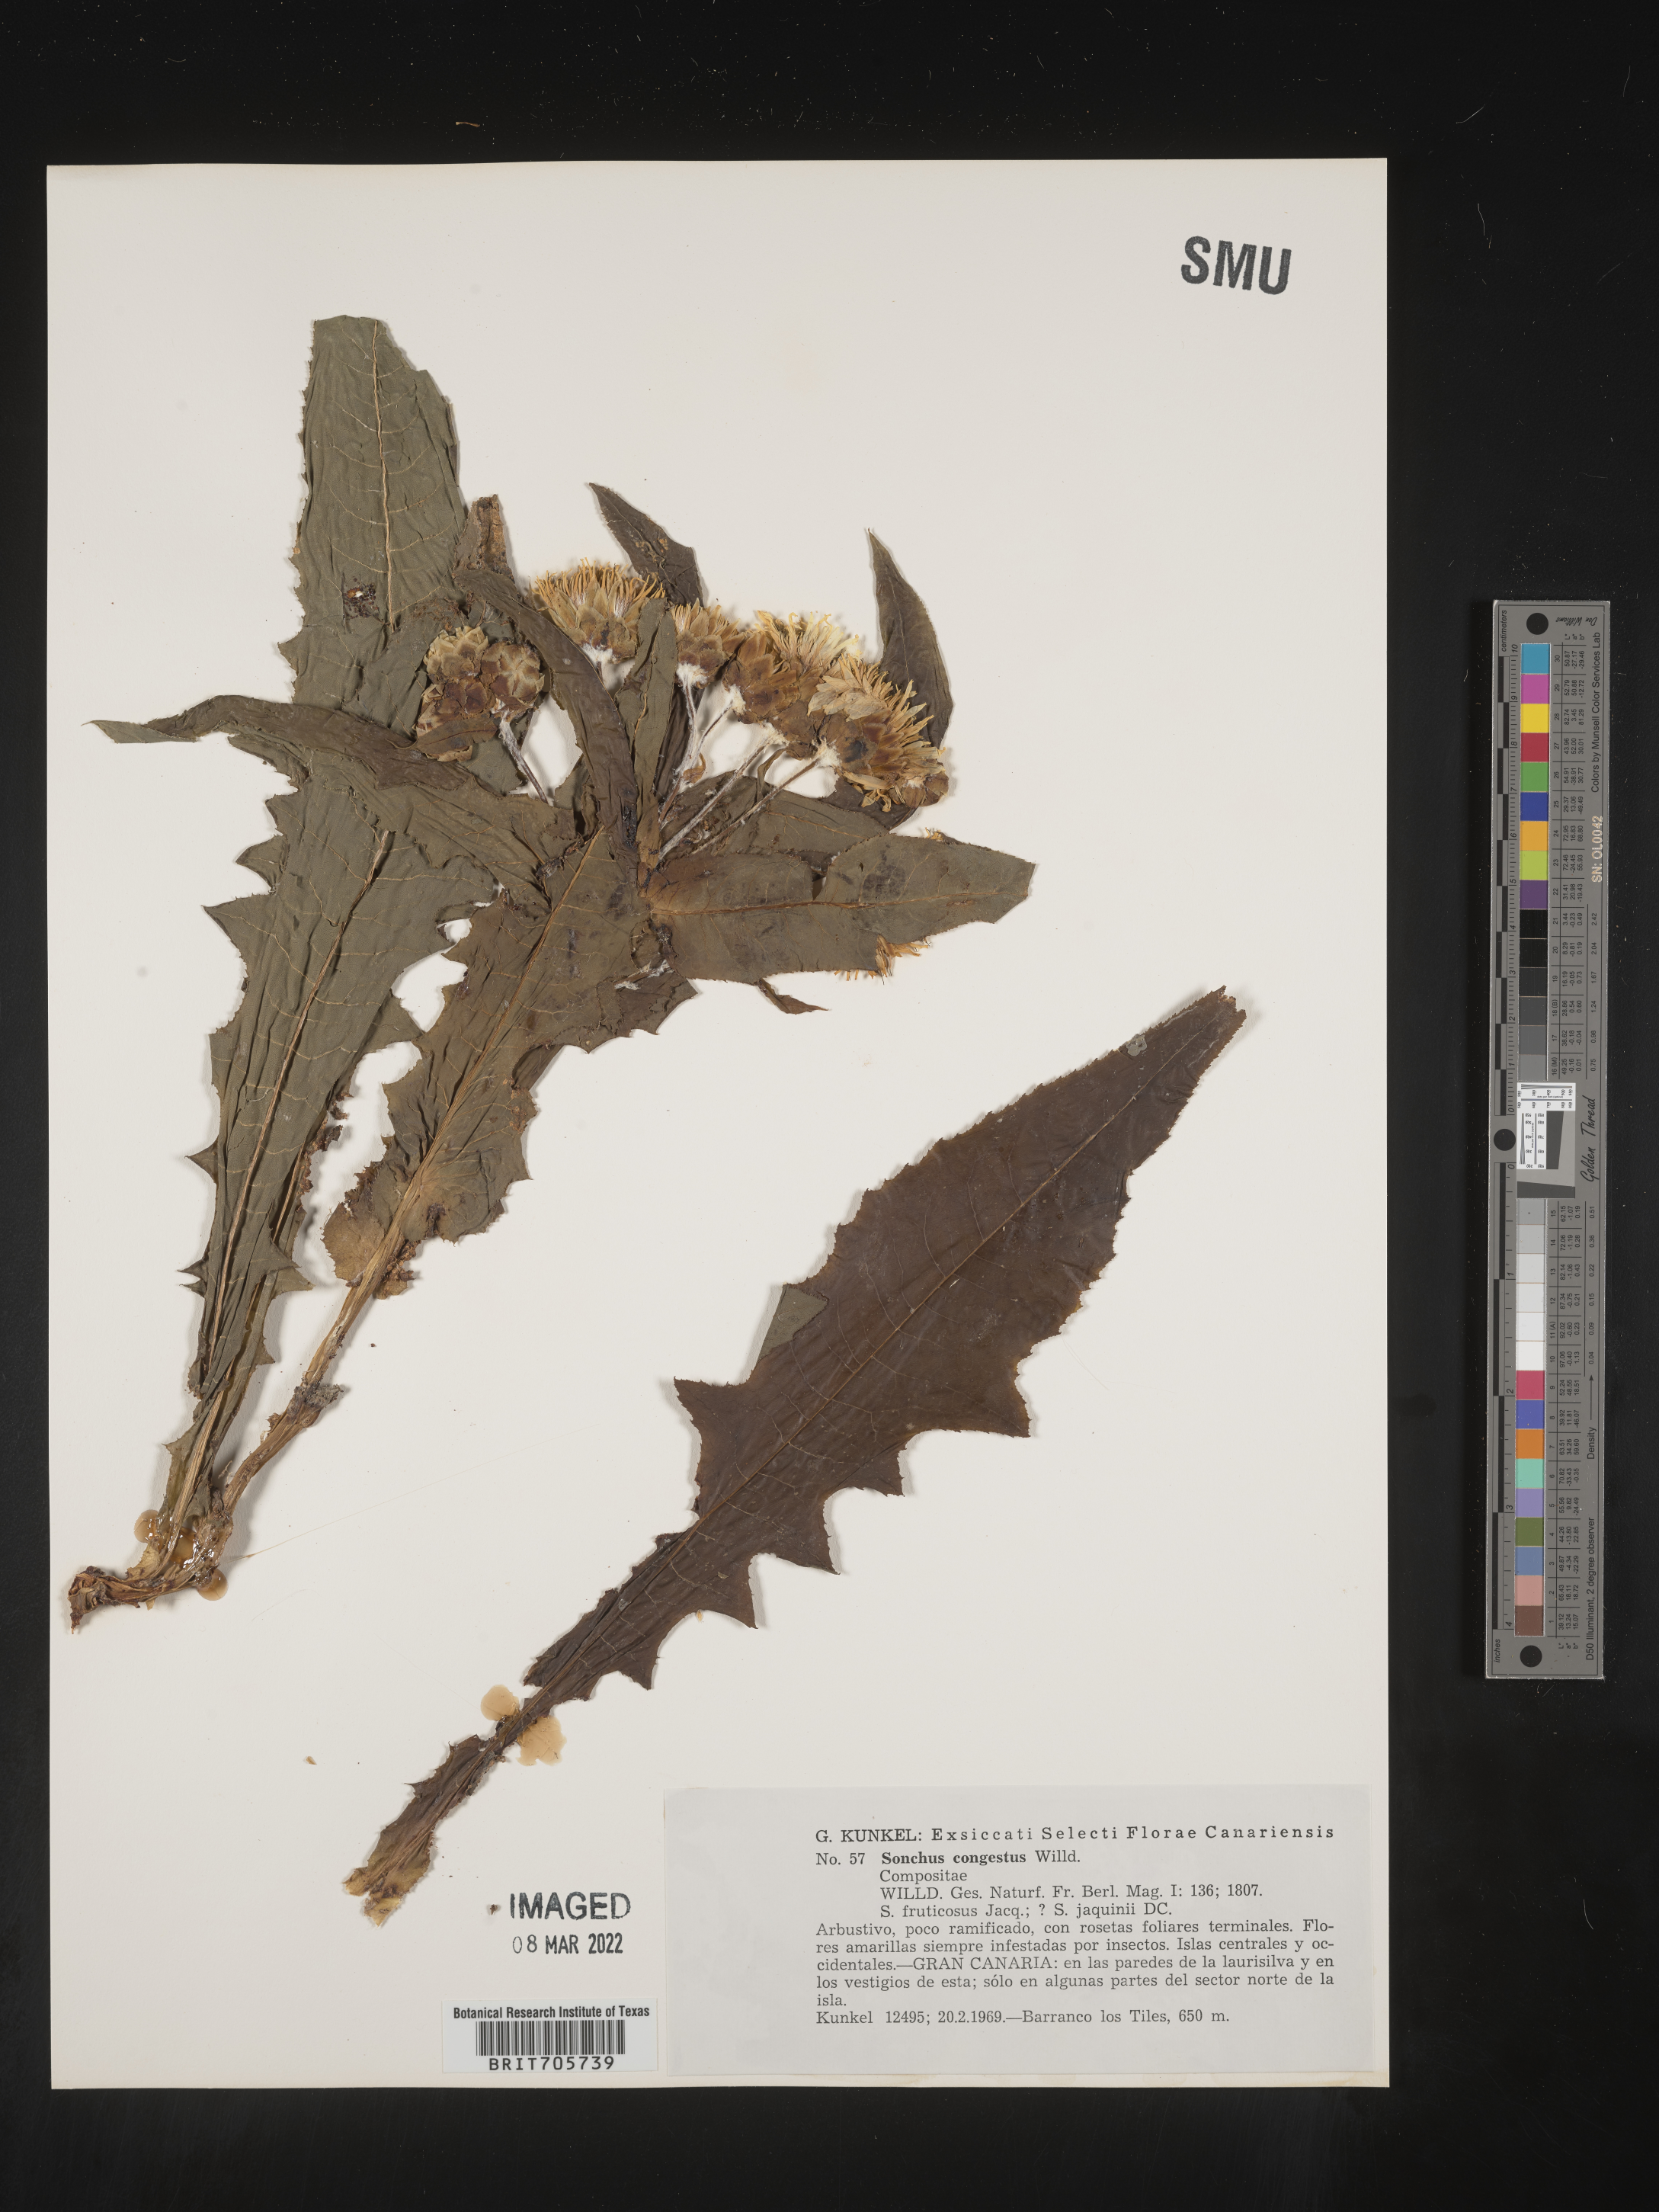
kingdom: Plantae
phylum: Tracheophyta
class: Magnoliopsida
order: Asterales
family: Asteraceae
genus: Sonchus
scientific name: Sonchus
